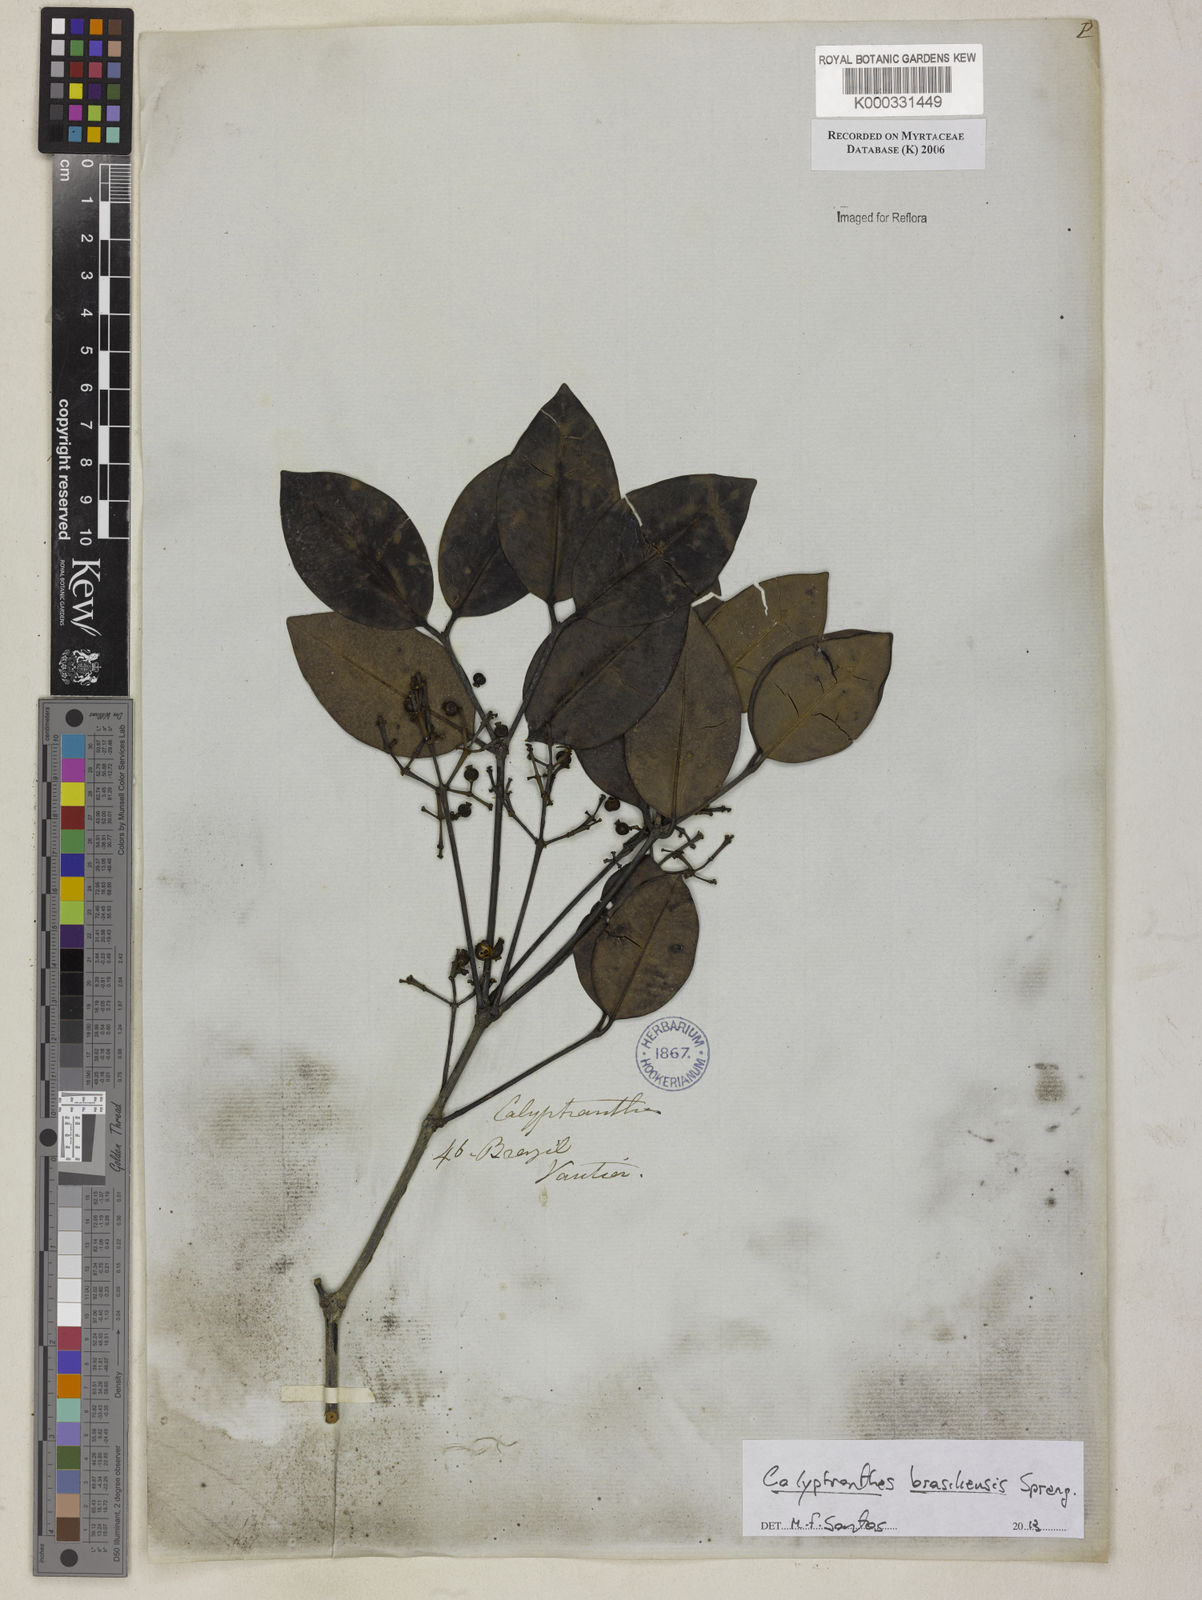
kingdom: Plantae
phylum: Tracheophyta
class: Magnoliopsida
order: Myrtales
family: Myrtaceae
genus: Calyptranthes
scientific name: Calyptranthes
